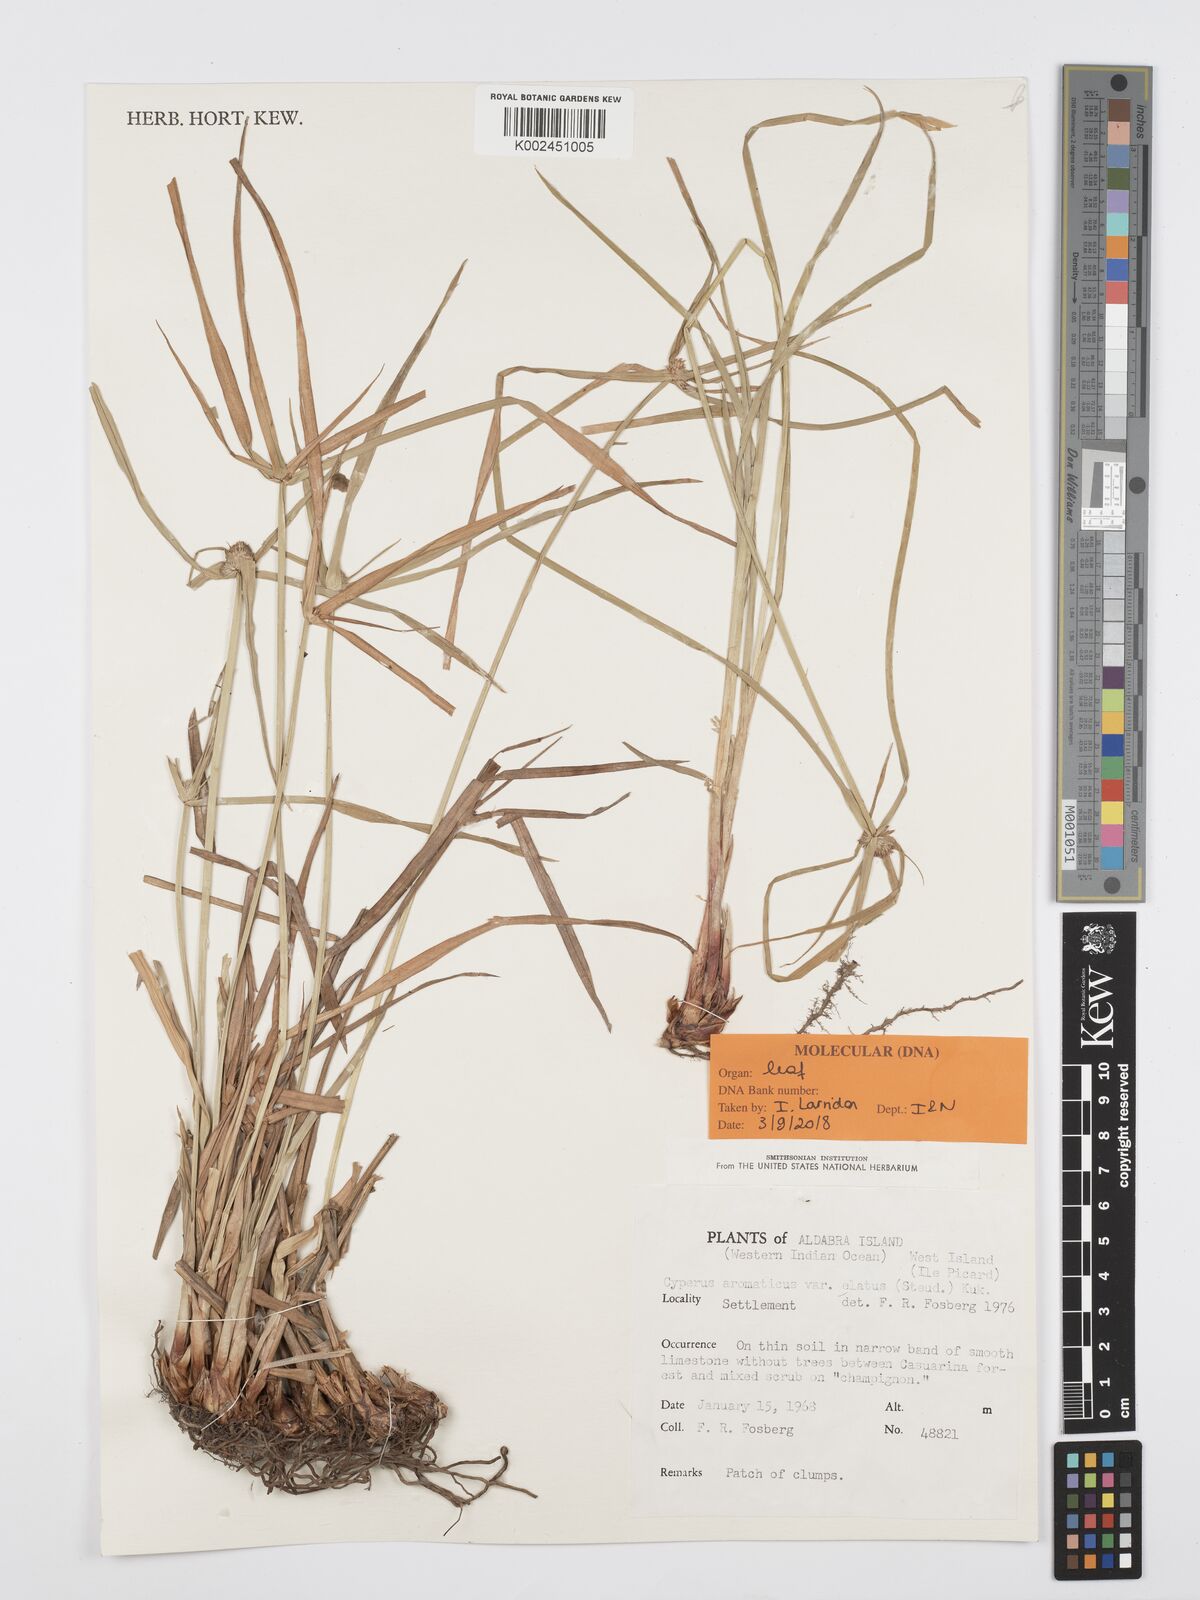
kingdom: Plantae
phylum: Tracheophyta
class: Liliopsida
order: Poales
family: Cyperaceae
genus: Cyperus
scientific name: Cyperus
